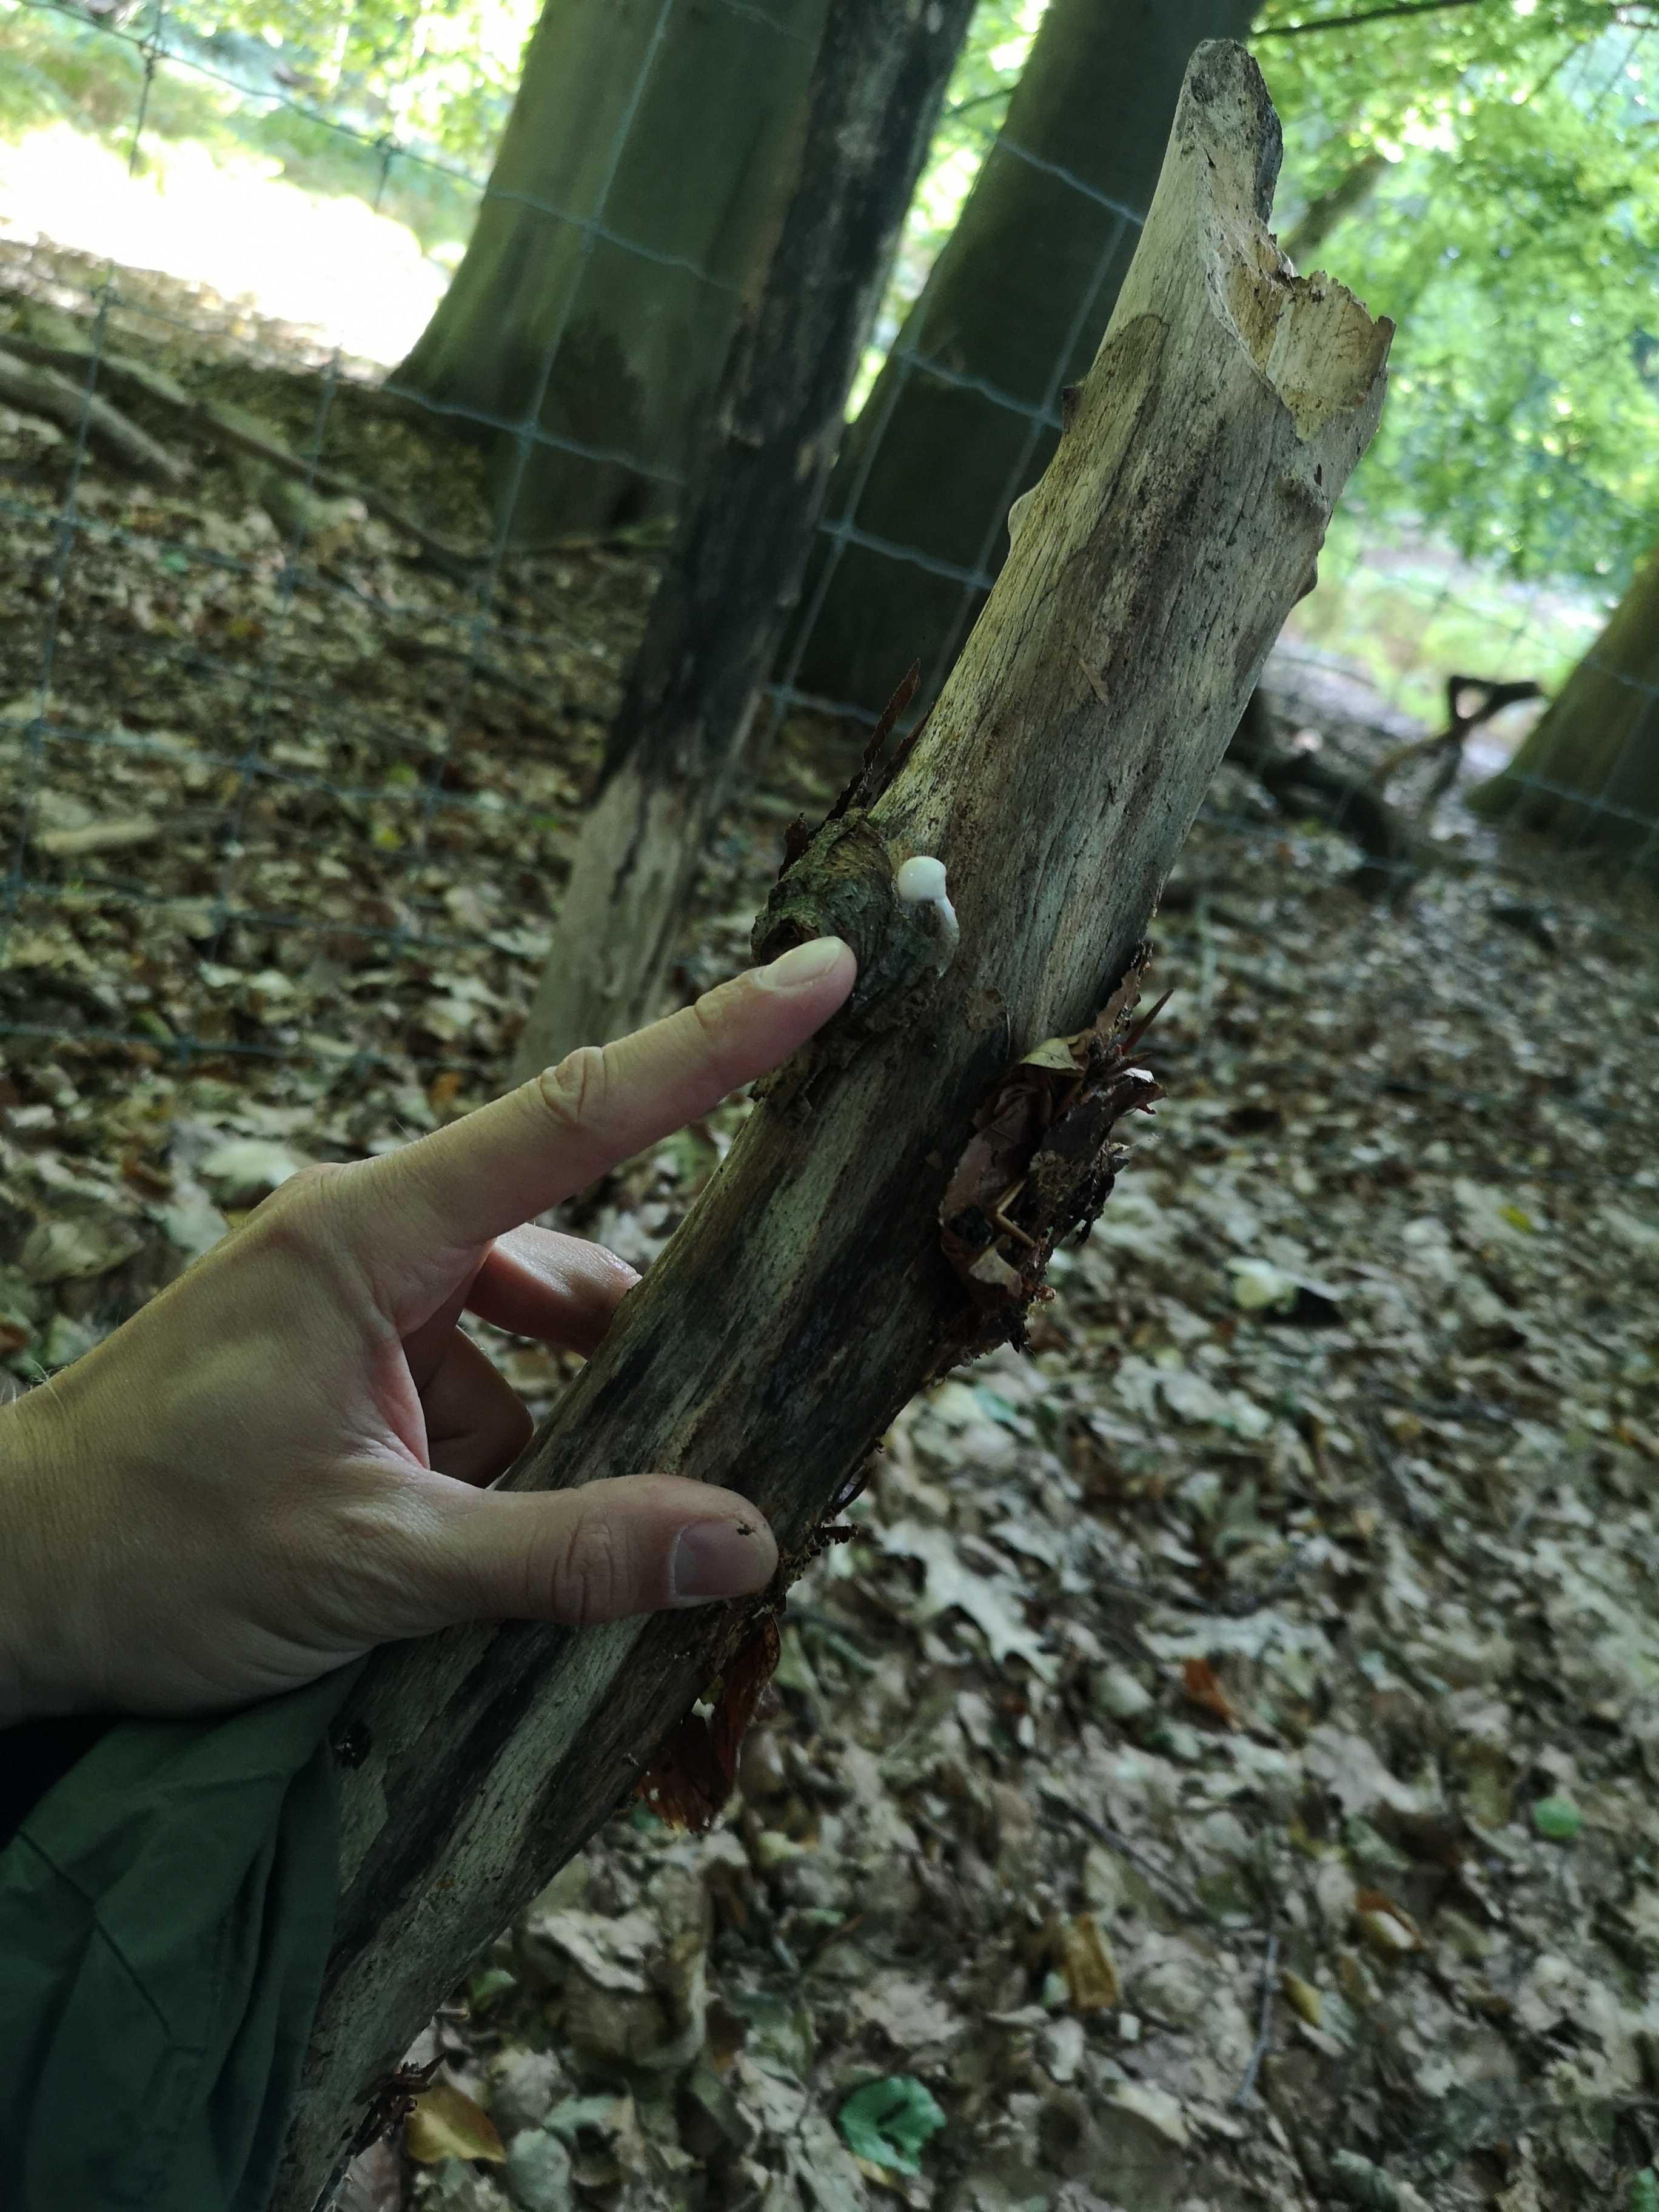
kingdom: Fungi
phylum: Basidiomycota
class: Agaricomycetes
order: Agaricales
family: Physalacriaceae
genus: Mucidula
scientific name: Mucidula mucida
